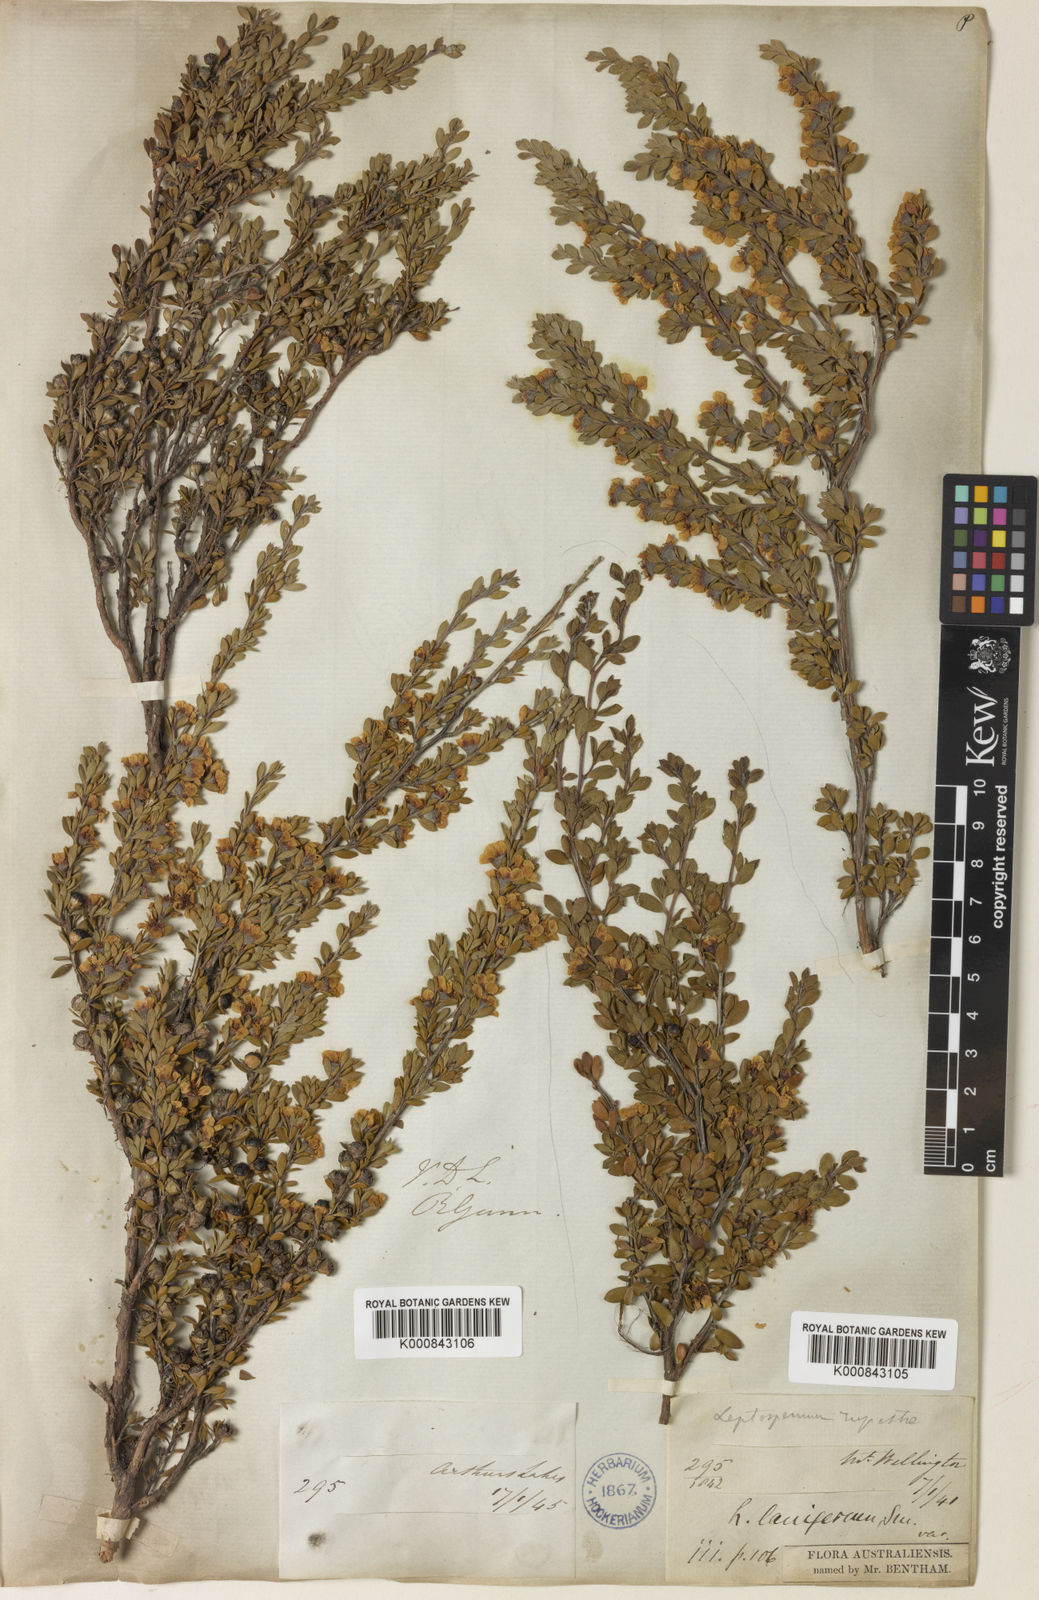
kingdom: Plantae
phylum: Tracheophyta
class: Magnoliopsida
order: Myrtales
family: Myrtaceae
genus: Leptospermum
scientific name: Leptospermum rupestre
